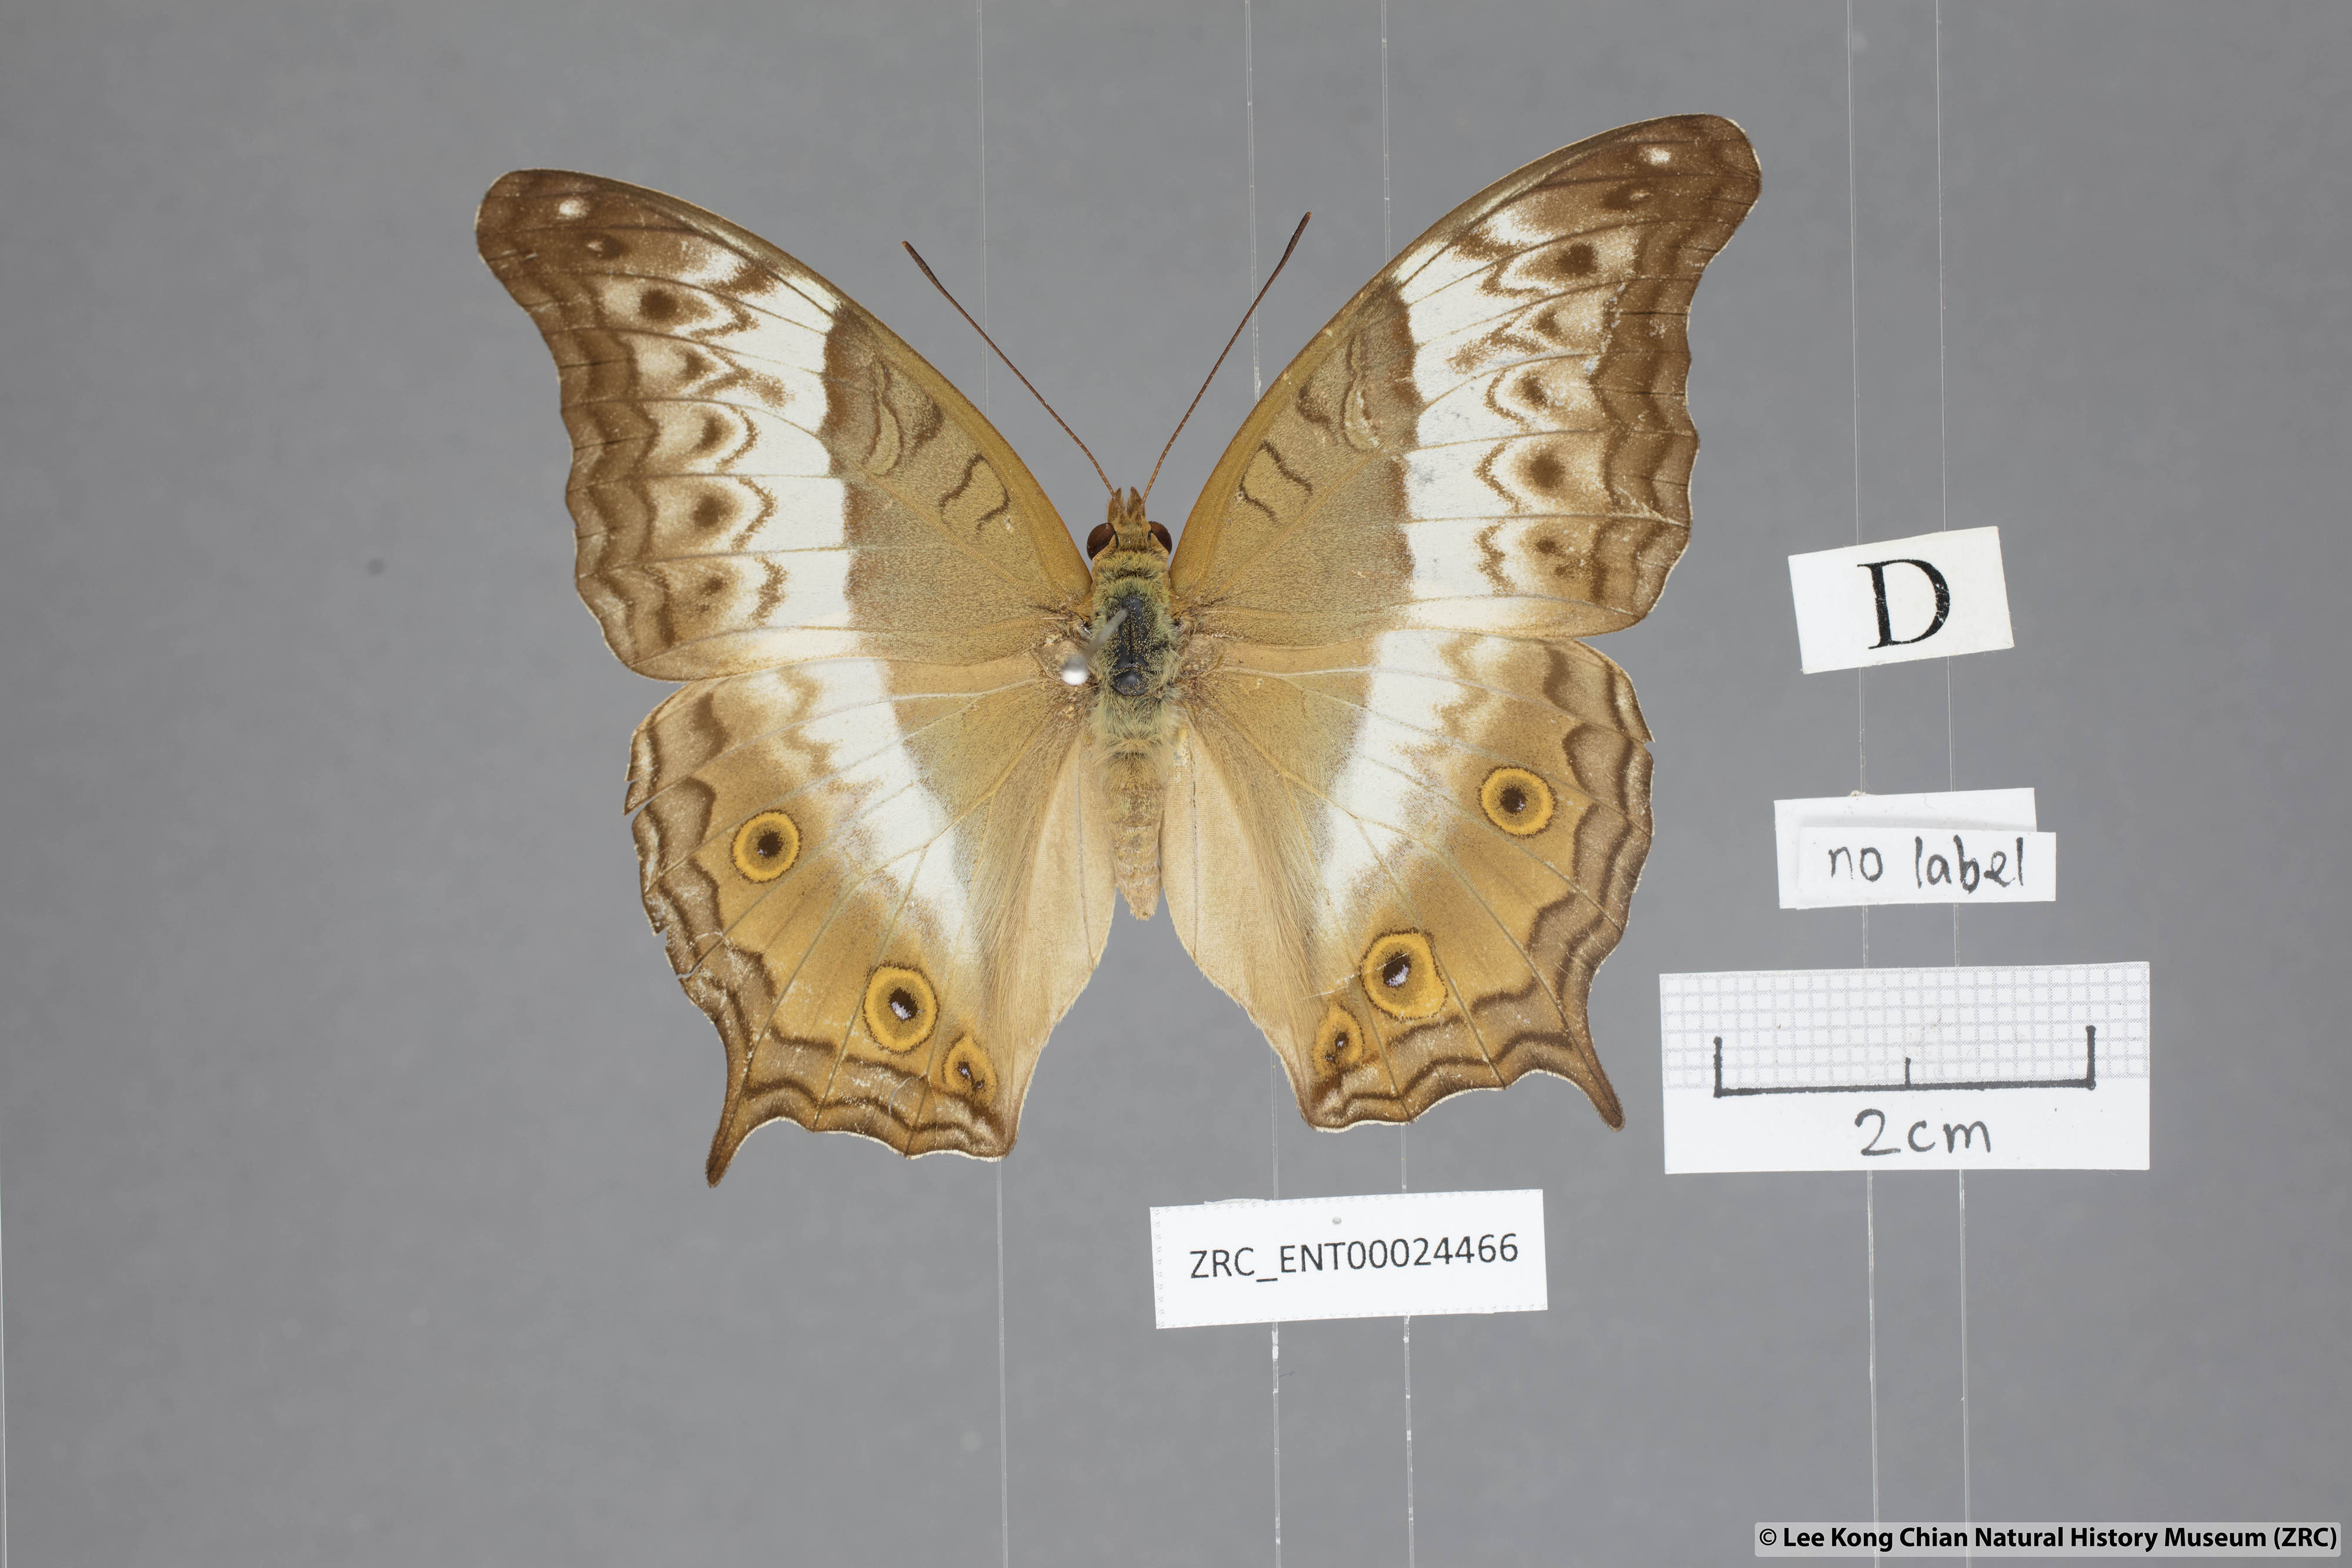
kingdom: Animalia
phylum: Arthropoda
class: Insecta
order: Lepidoptera
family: Nymphalidae
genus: Vindula
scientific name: Vindula deione
